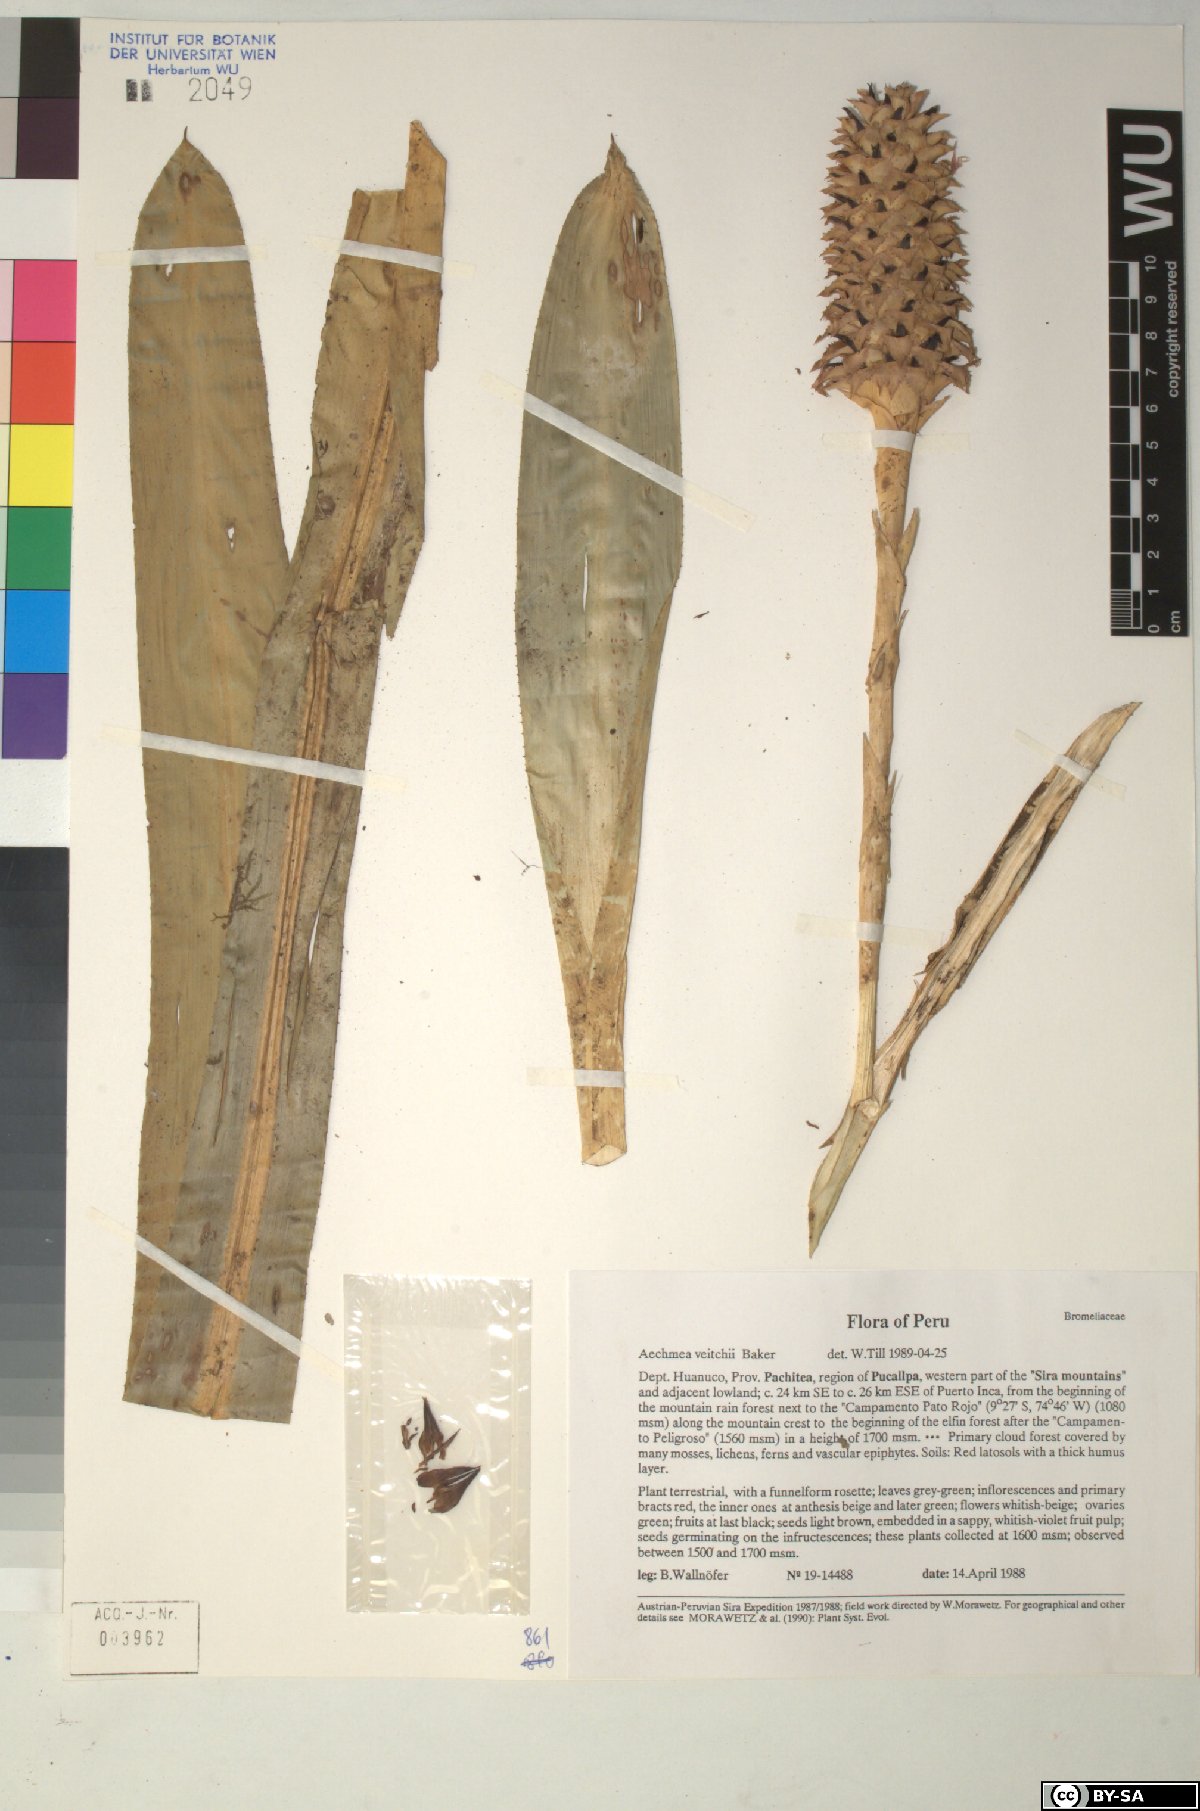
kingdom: Plantae
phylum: Tracheophyta
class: Liliopsida
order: Poales
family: Bromeliaceae
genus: Aechmea
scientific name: Aechmea
